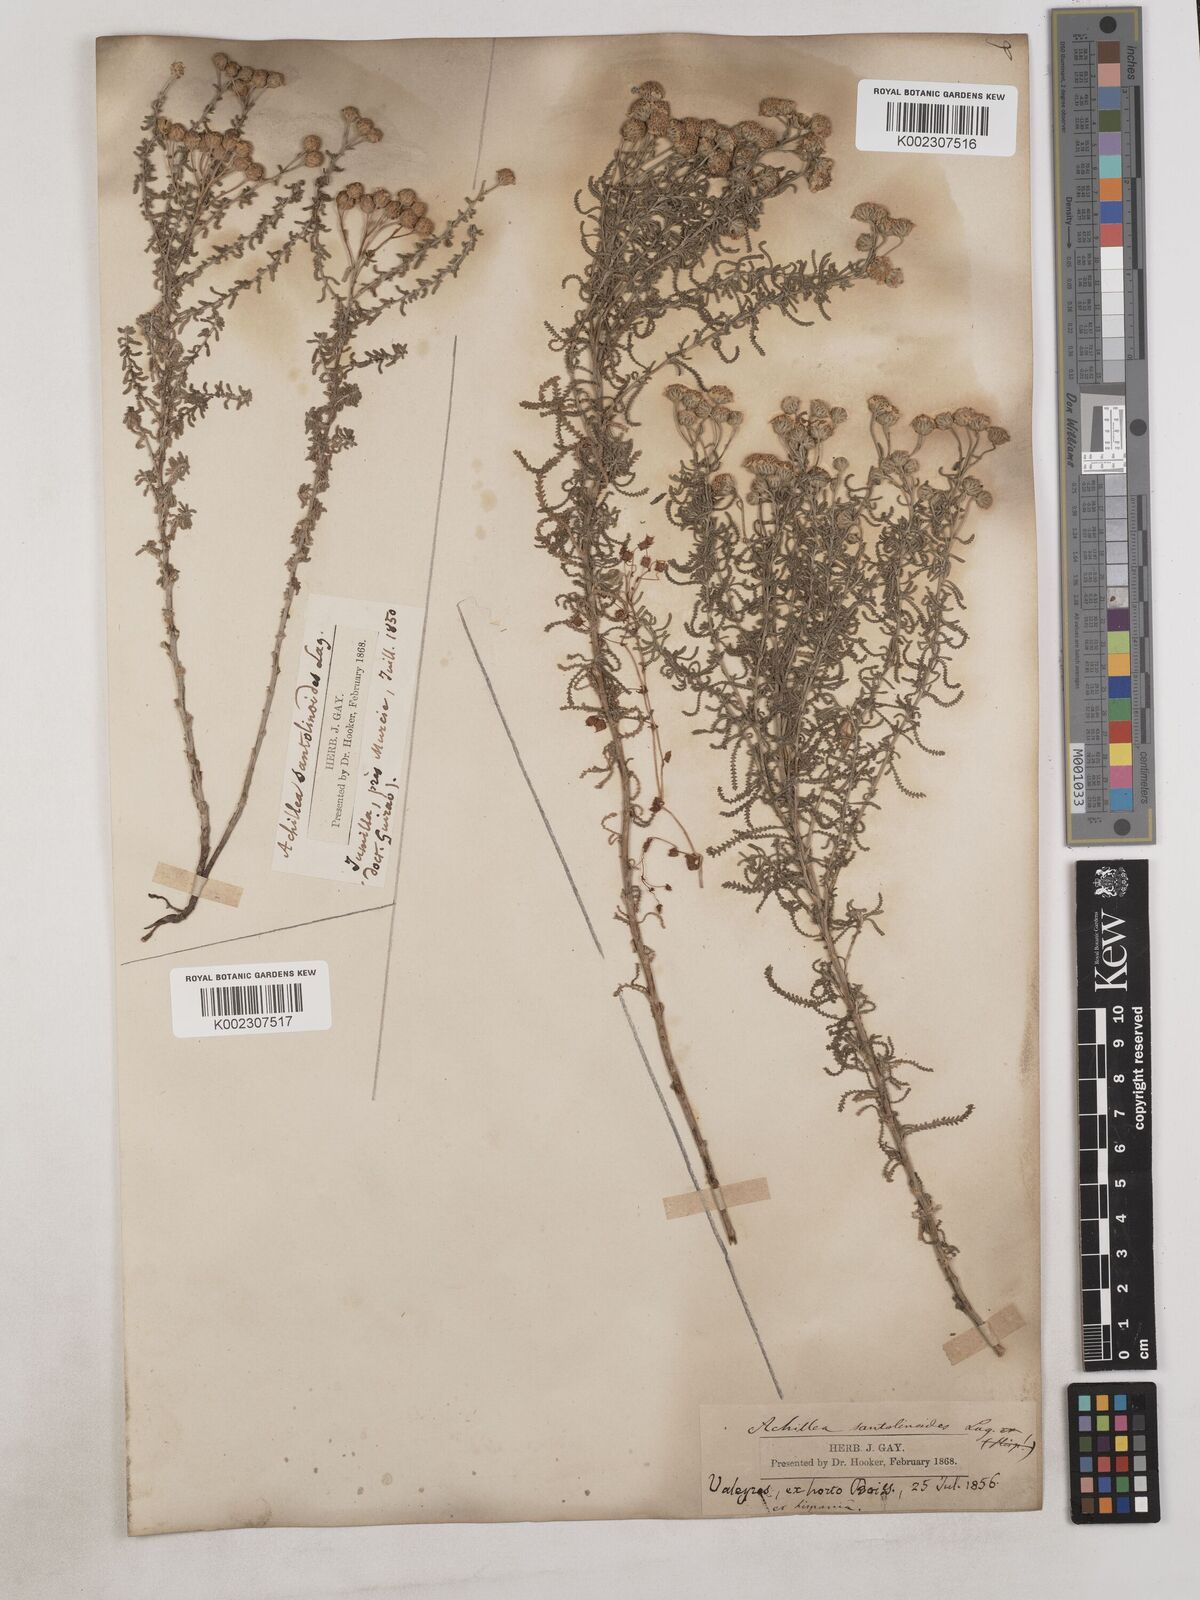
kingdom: Plantae
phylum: Tracheophyta
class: Magnoliopsida
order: Asterales
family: Asteraceae
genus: Achillea
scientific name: Achillea santolinoides
